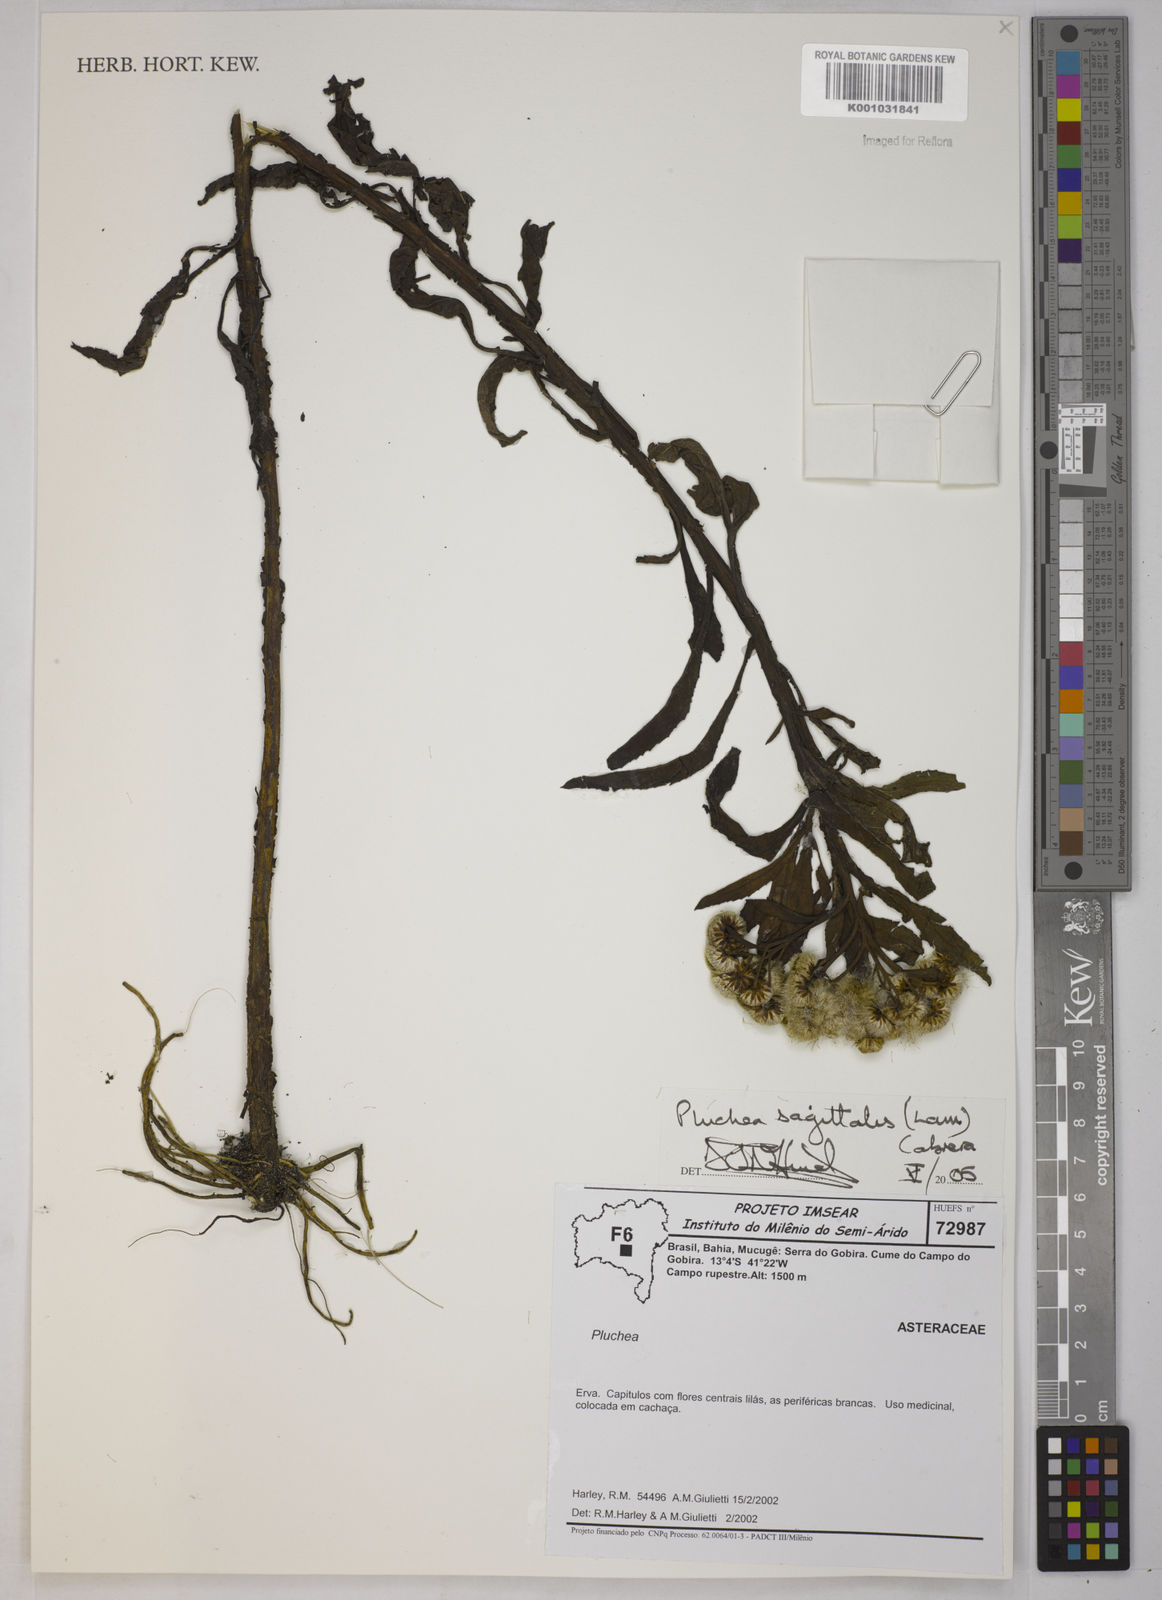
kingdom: Plantae
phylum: Tracheophyta
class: Magnoliopsida
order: Asterales
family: Asteraceae
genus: Pluchea
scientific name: Pluchea sagittalis
